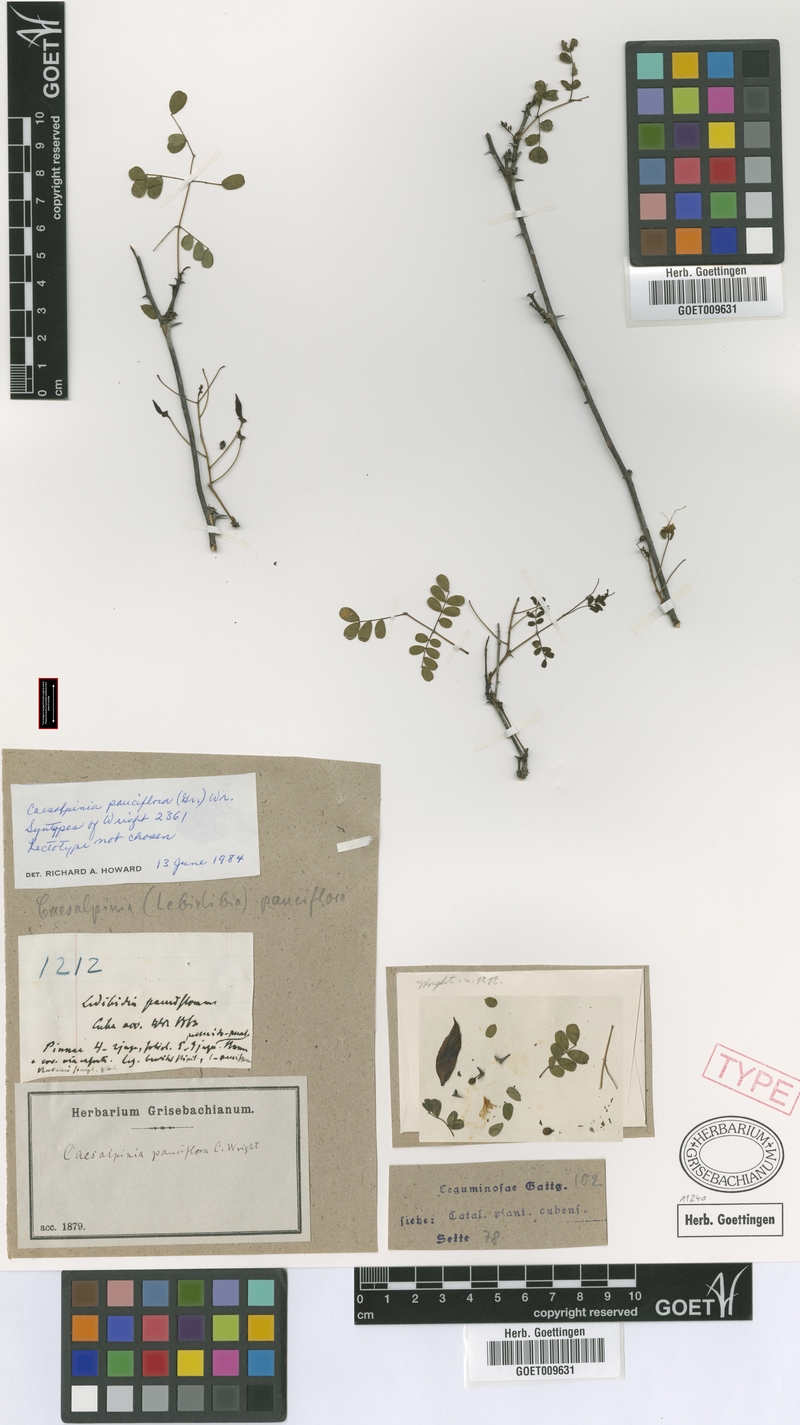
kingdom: Plantae
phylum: Tracheophyta
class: Magnoliopsida
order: Fabales
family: Fabaceae
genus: Denisophytum
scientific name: Denisophytum pauciflorum
